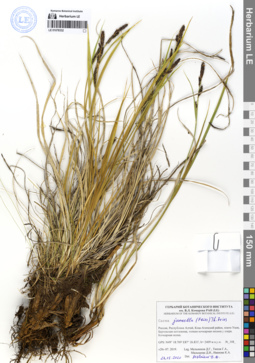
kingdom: Plantae
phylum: Tracheophyta
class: Liliopsida
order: Poales
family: Cyperaceae
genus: Carex
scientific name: Carex nigra
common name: Common sedge
